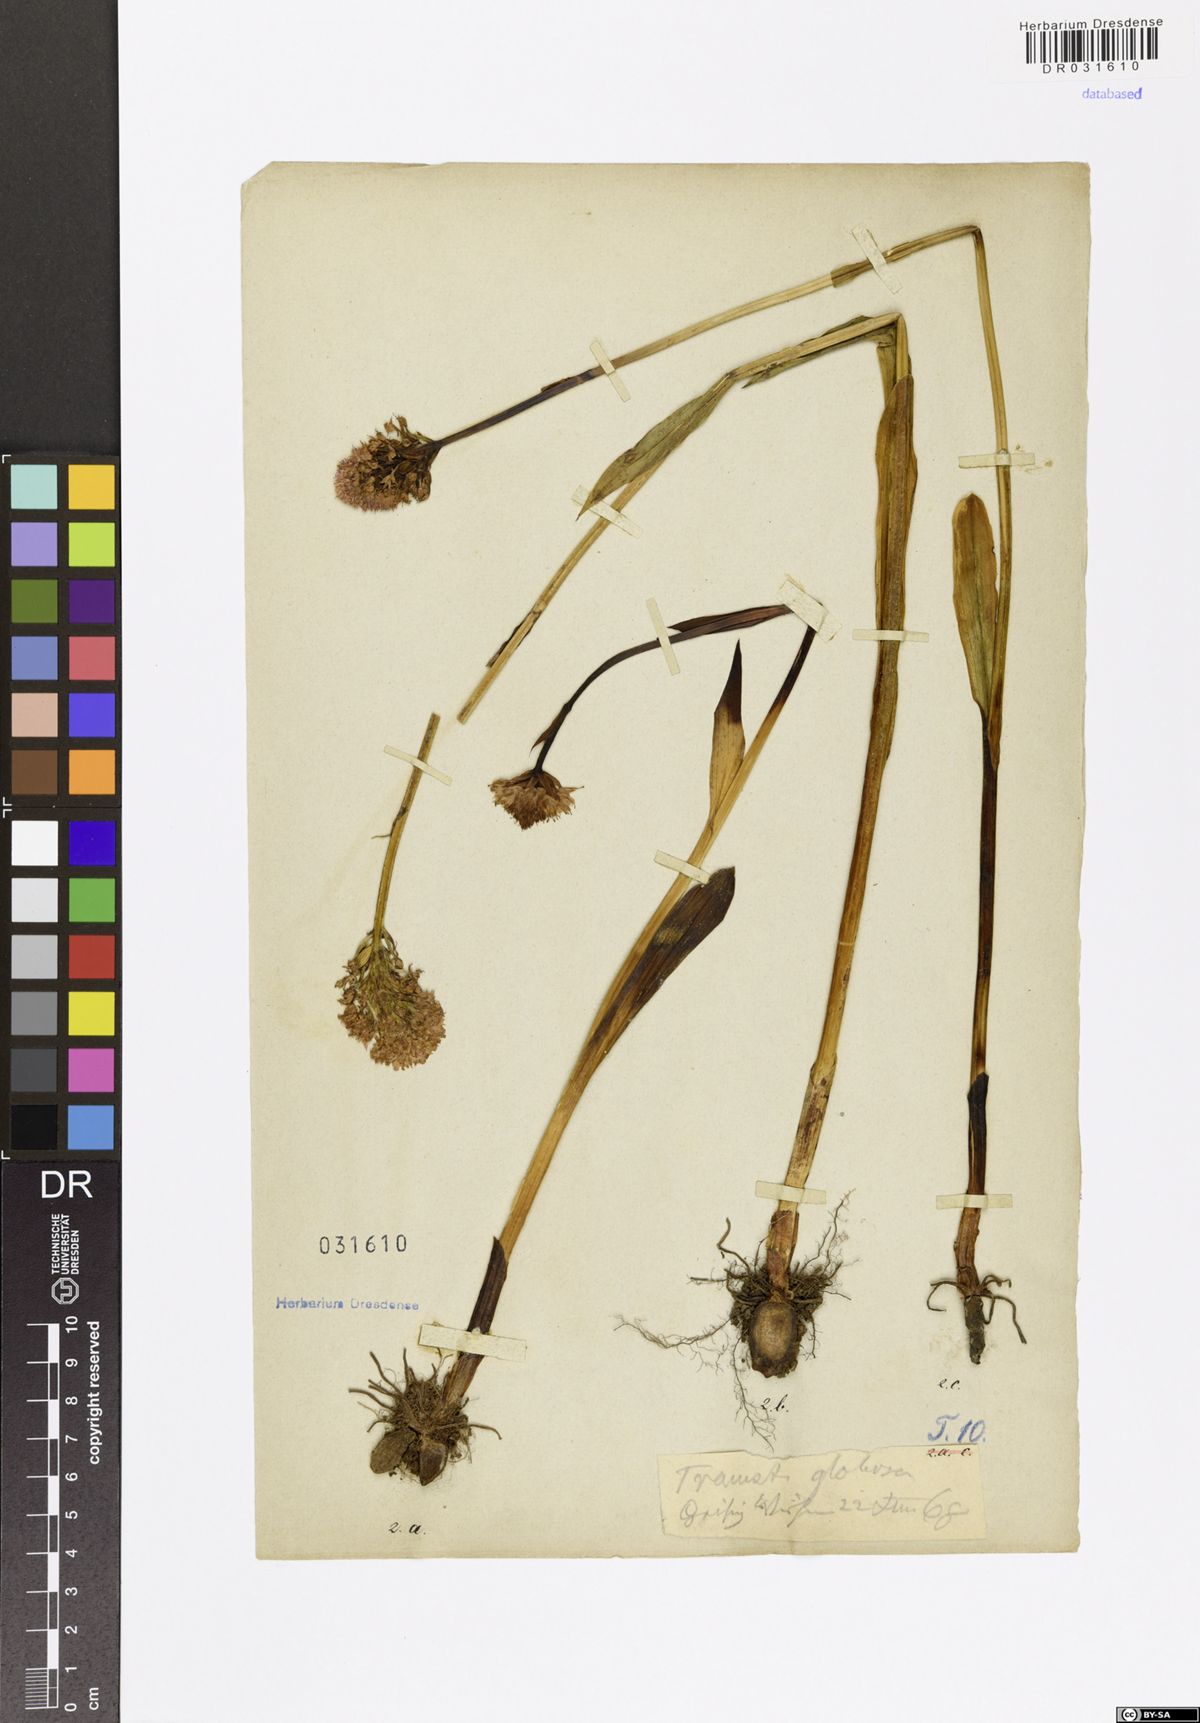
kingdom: Plantae
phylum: Tracheophyta
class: Liliopsida
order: Asparagales
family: Orchidaceae
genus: Traunsteinera
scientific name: Traunsteinera globosa
